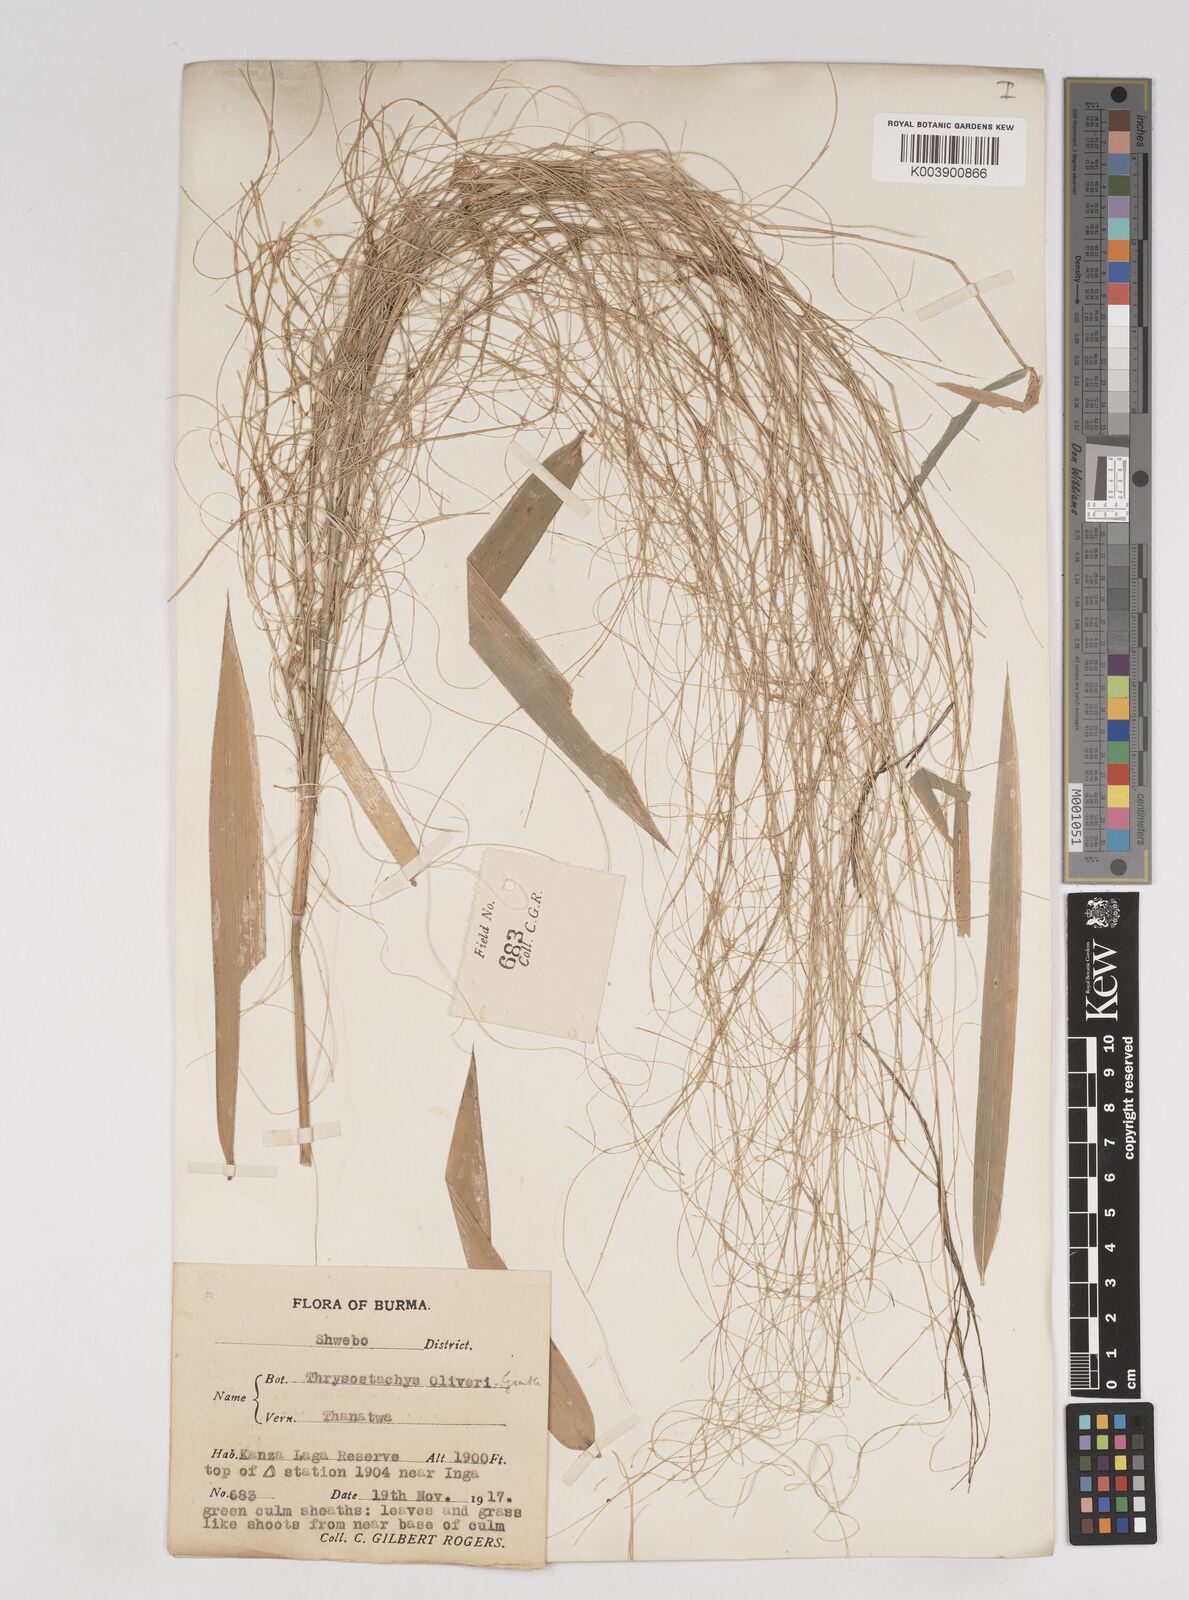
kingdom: Plantae
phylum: Tracheophyta
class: Liliopsida
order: Poales
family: Poaceae
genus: Thyrsostachys
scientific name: Thyrsostachys oliveri
